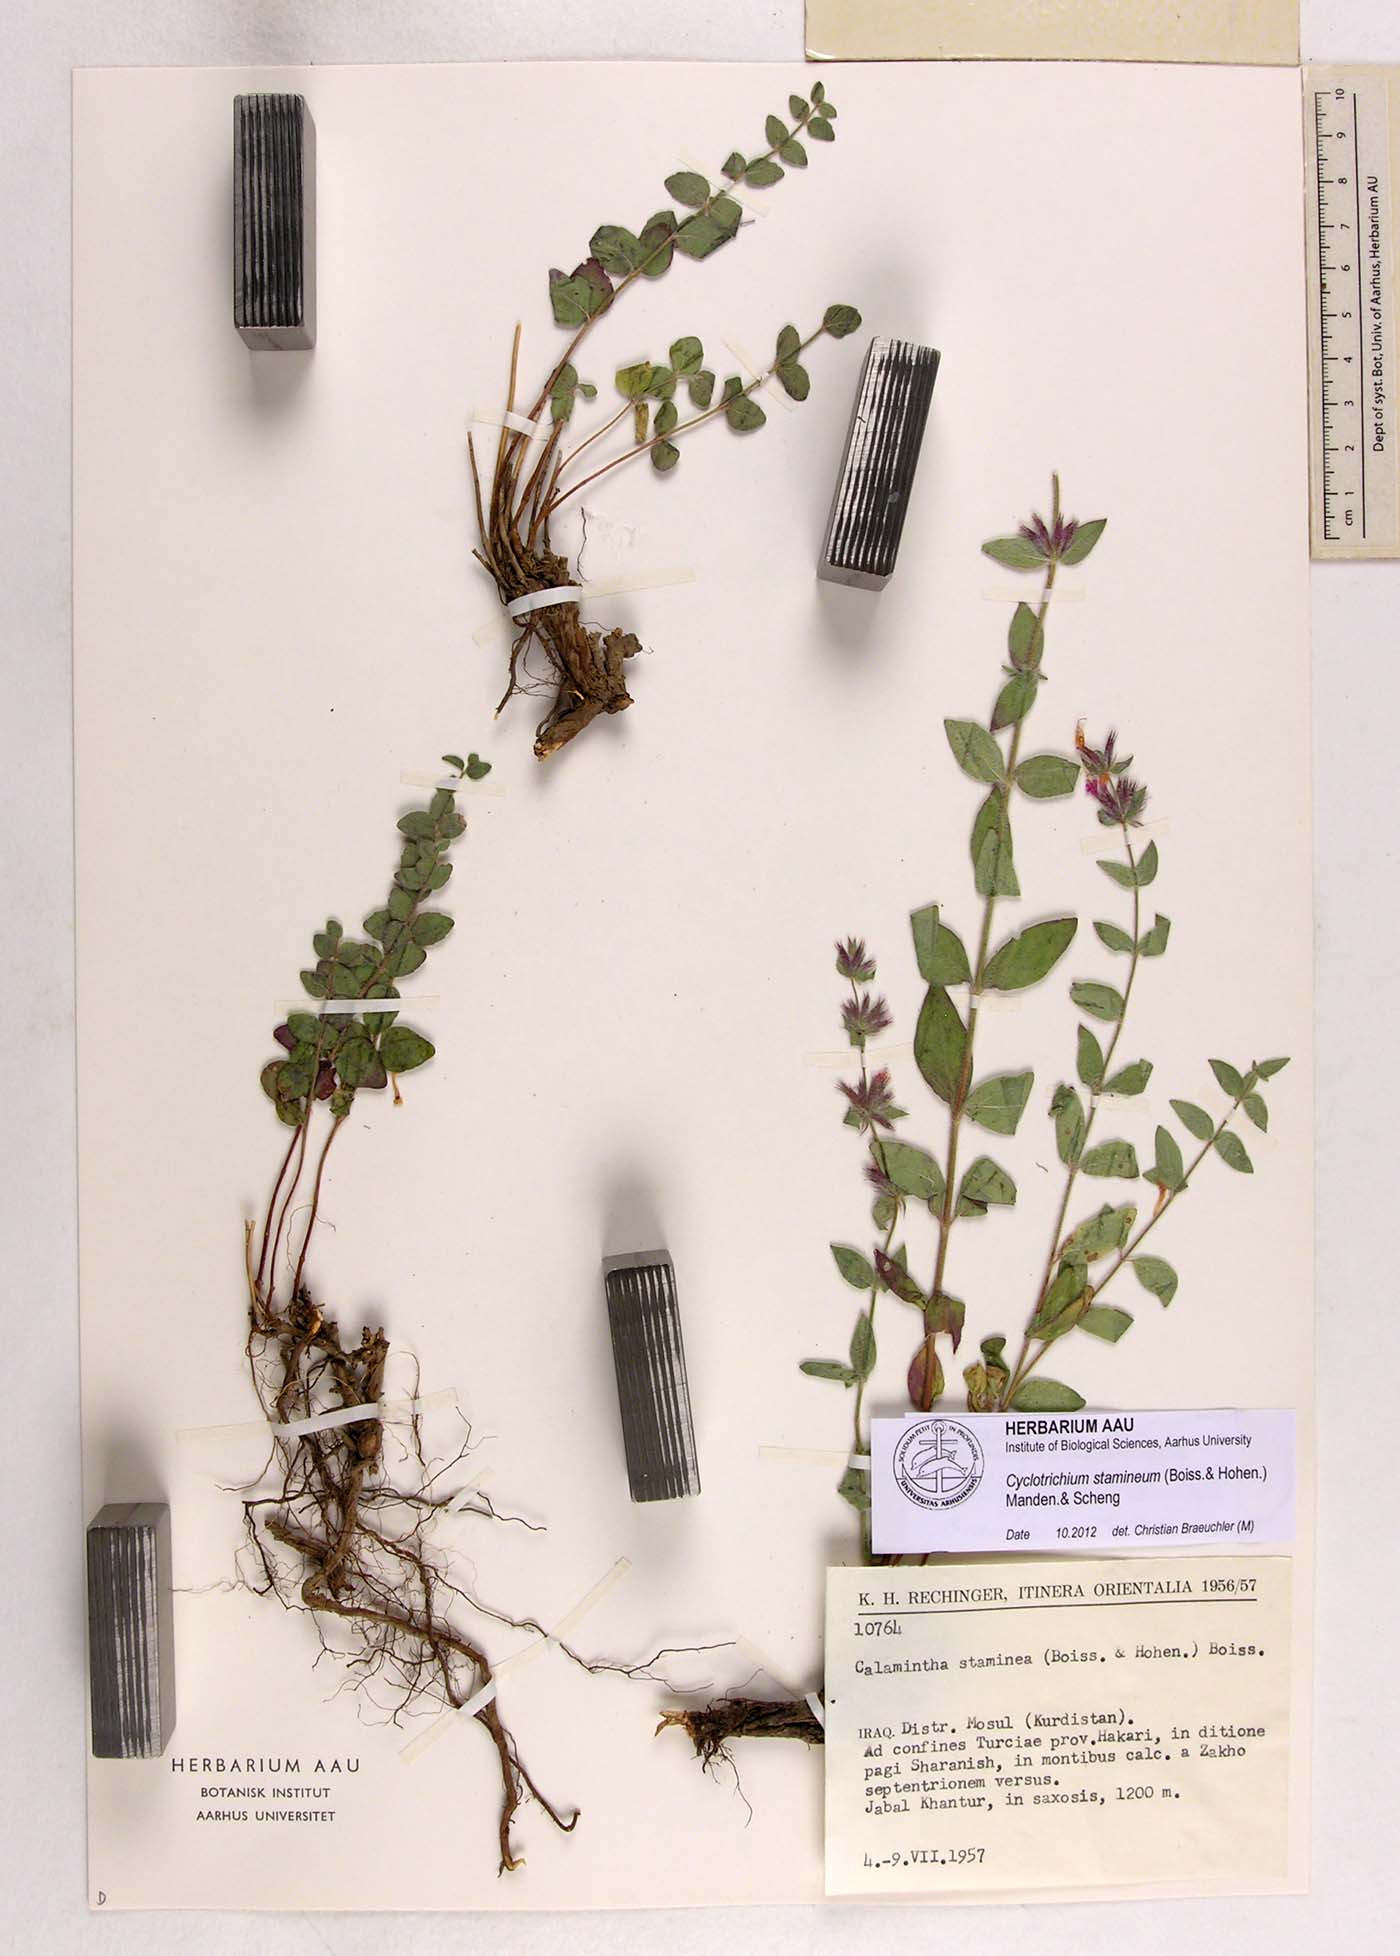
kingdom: Plantae
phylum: Tracheophyta
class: Magnoliopsida
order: Lamiales
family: Lamiaceae
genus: Cyclotrichium
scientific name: Cyclotrichium stamineum
